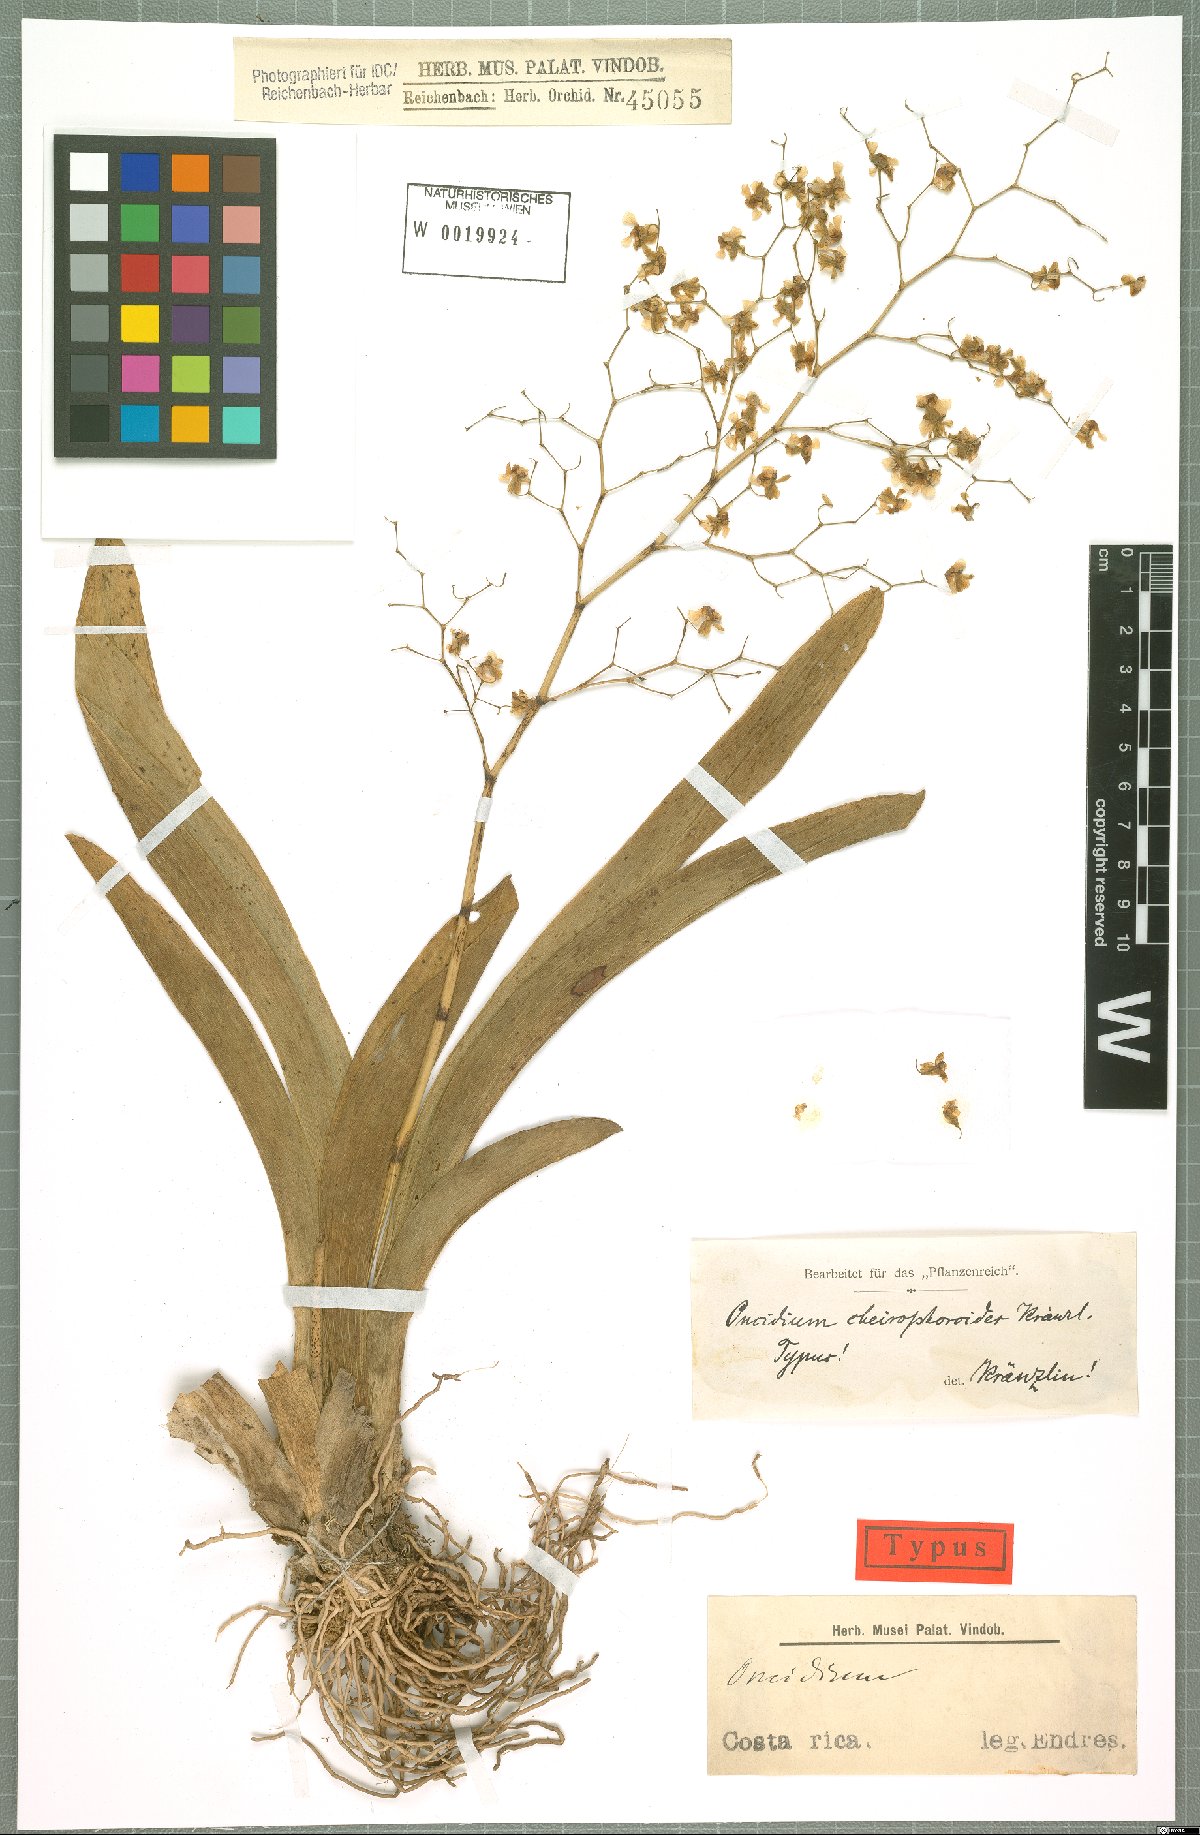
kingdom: Plantae
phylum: Tracheophyta
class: Liliopsida
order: Asparagales
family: Orchidaceae
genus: Oncidium
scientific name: Oncidium luteum
